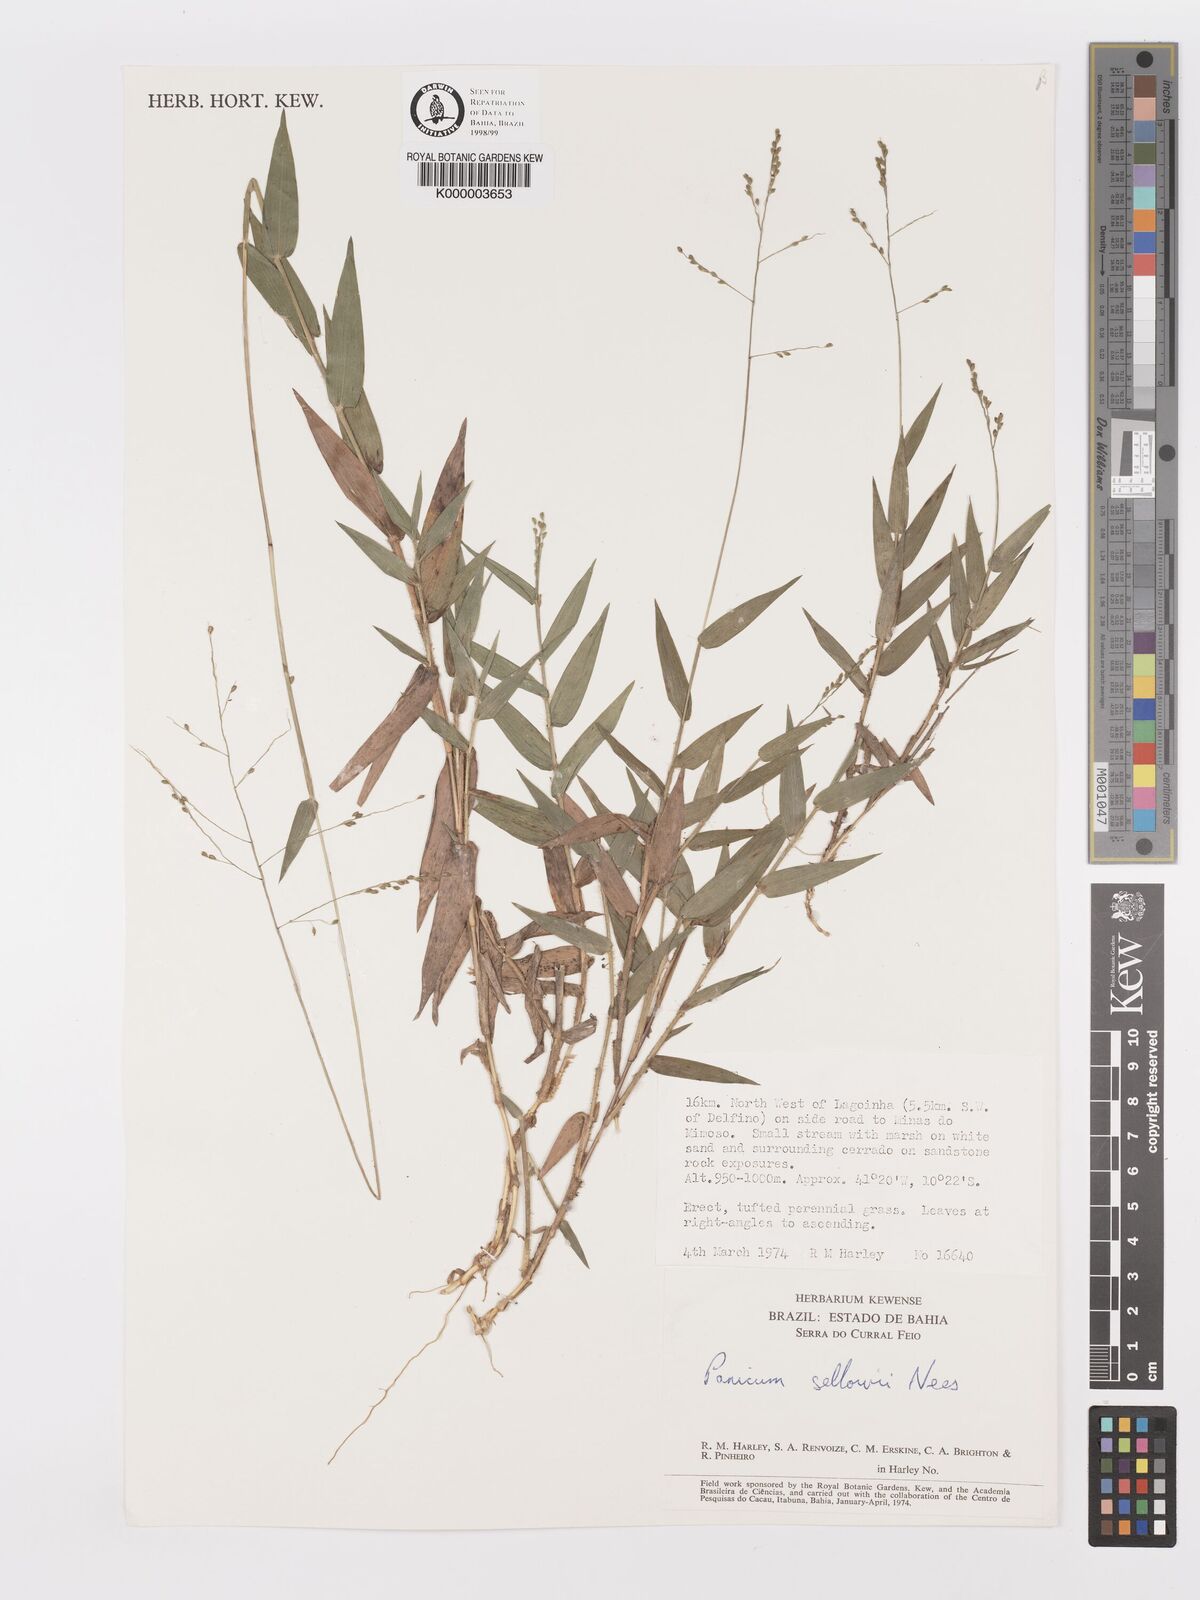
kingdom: Plantae
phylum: Tracheophyta
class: Liliopsida
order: Poales
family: Poaceae
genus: Panicum
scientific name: Panicum sellowii
